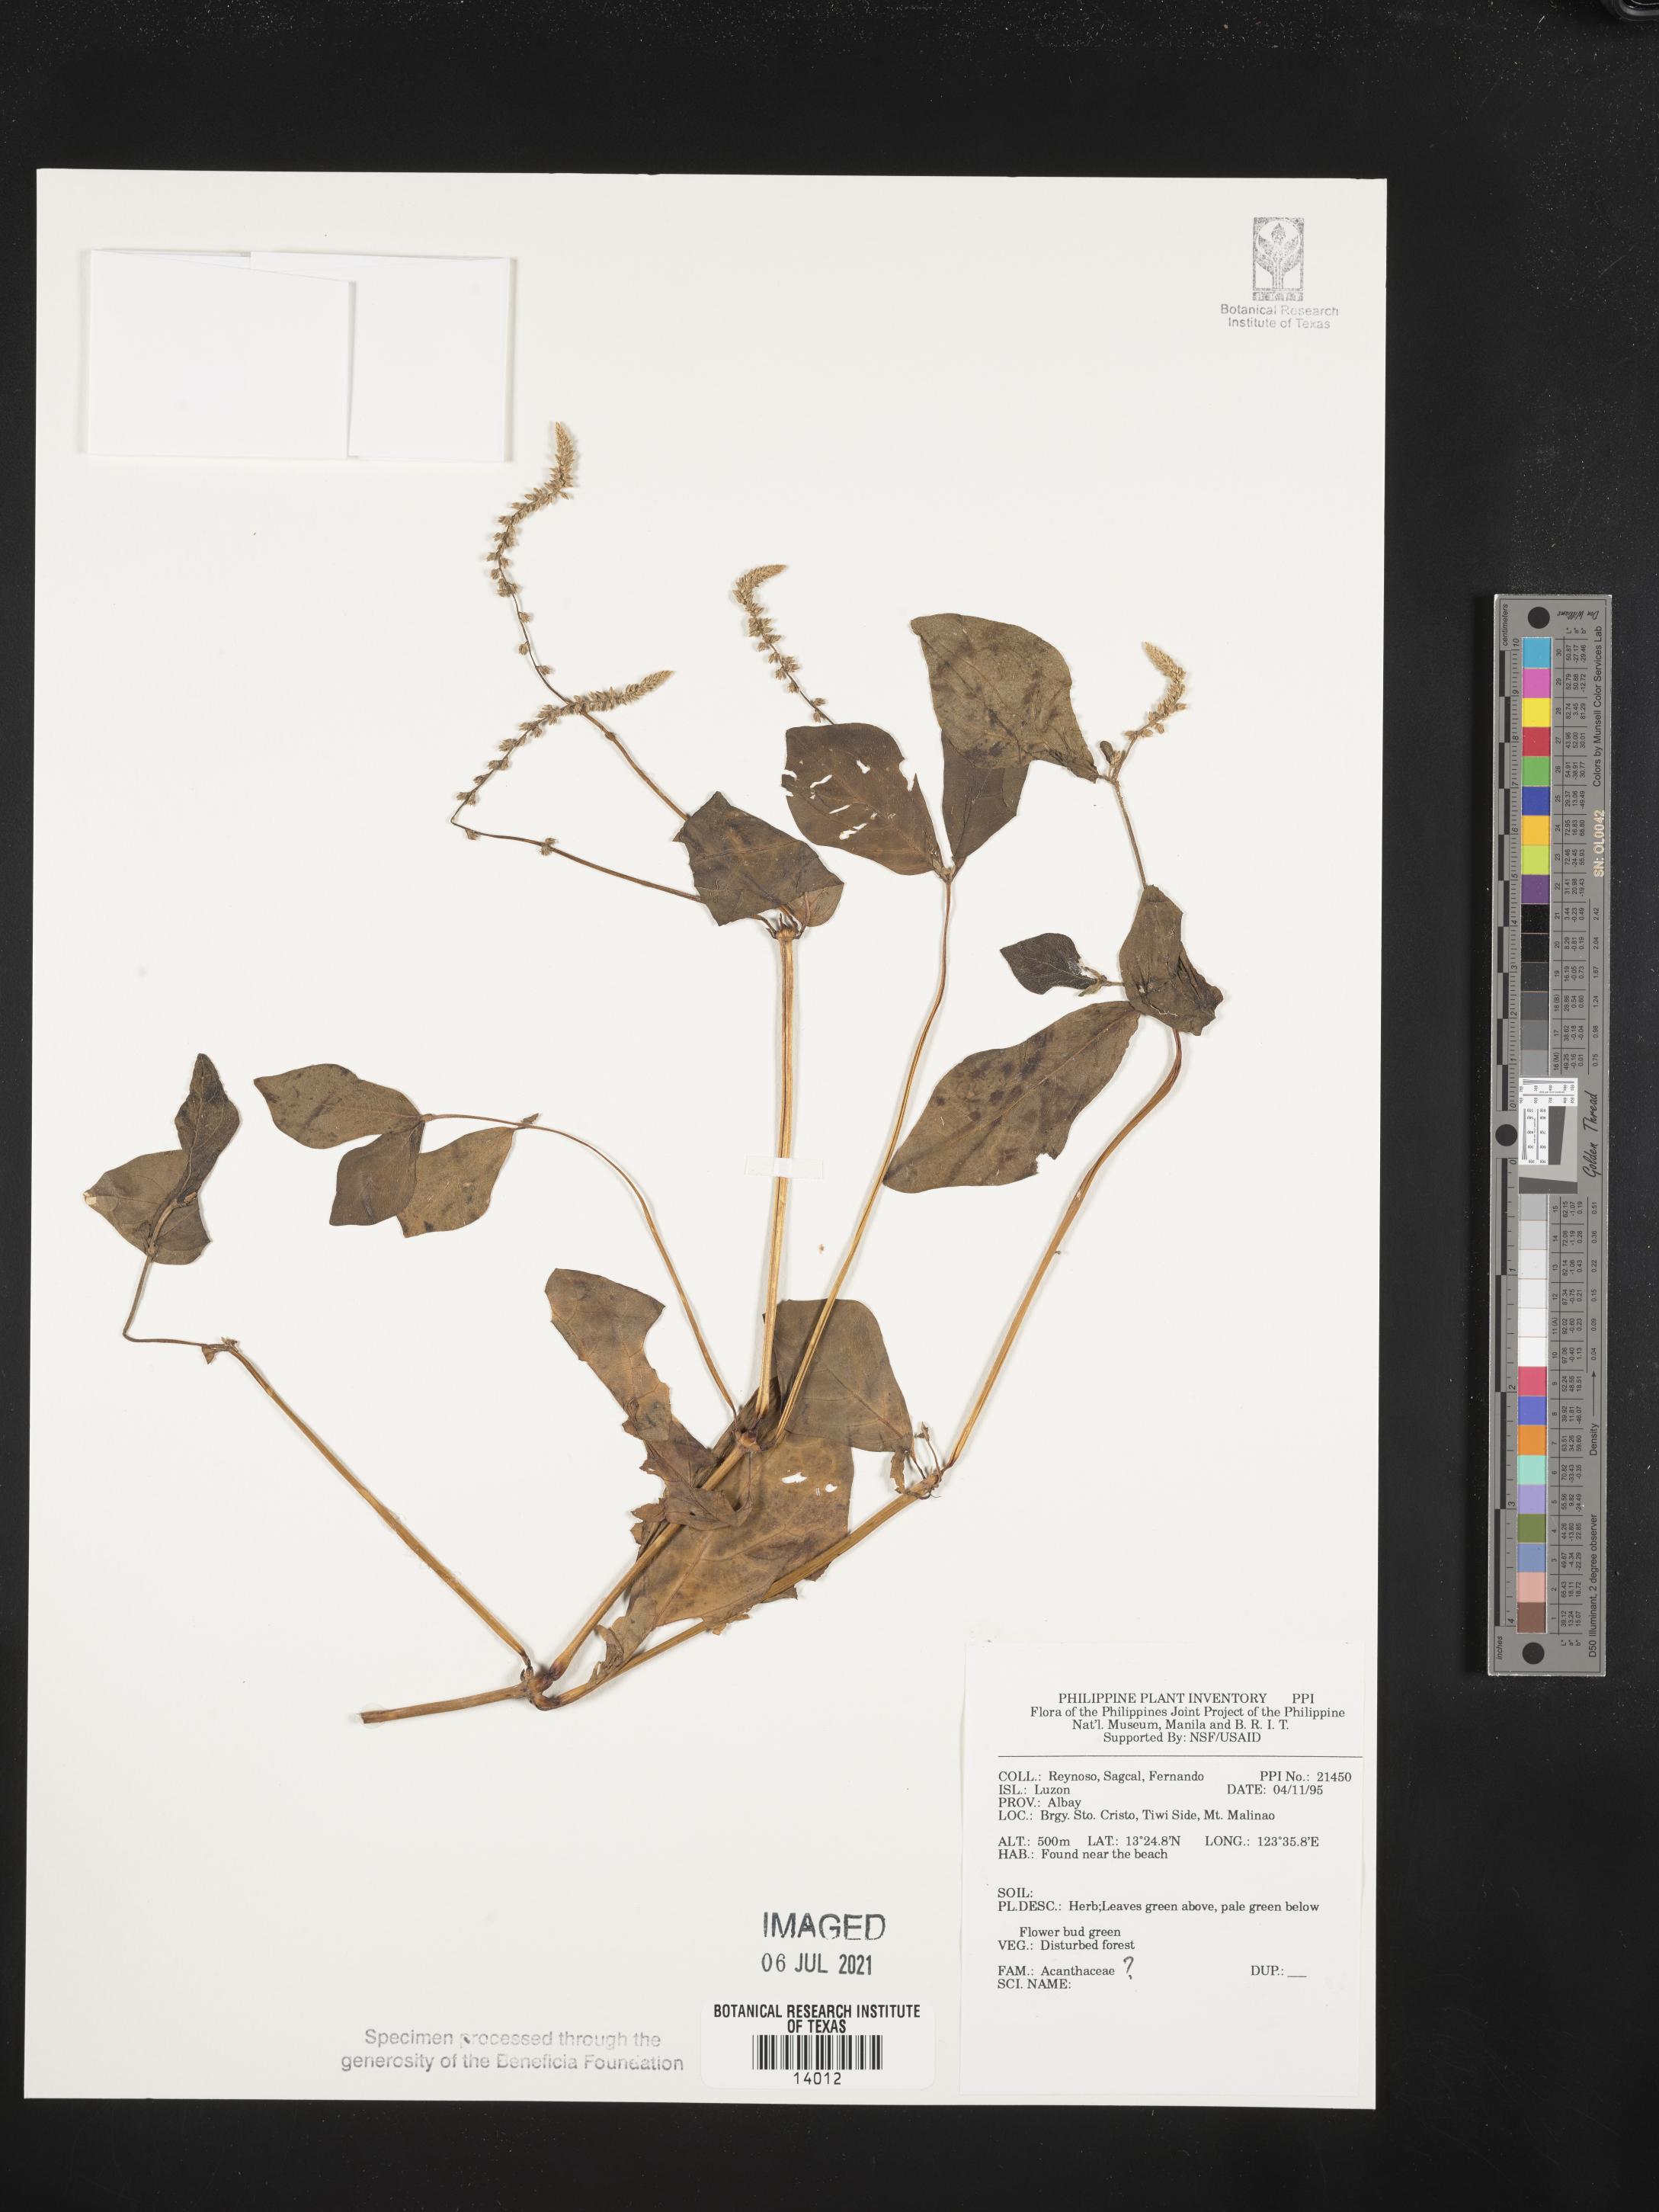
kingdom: Plantae
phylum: Tracheophyta
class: Magnoliopsida
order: Lamiales
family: Acanthaceae
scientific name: Acanthaceae
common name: Acanthaceae
